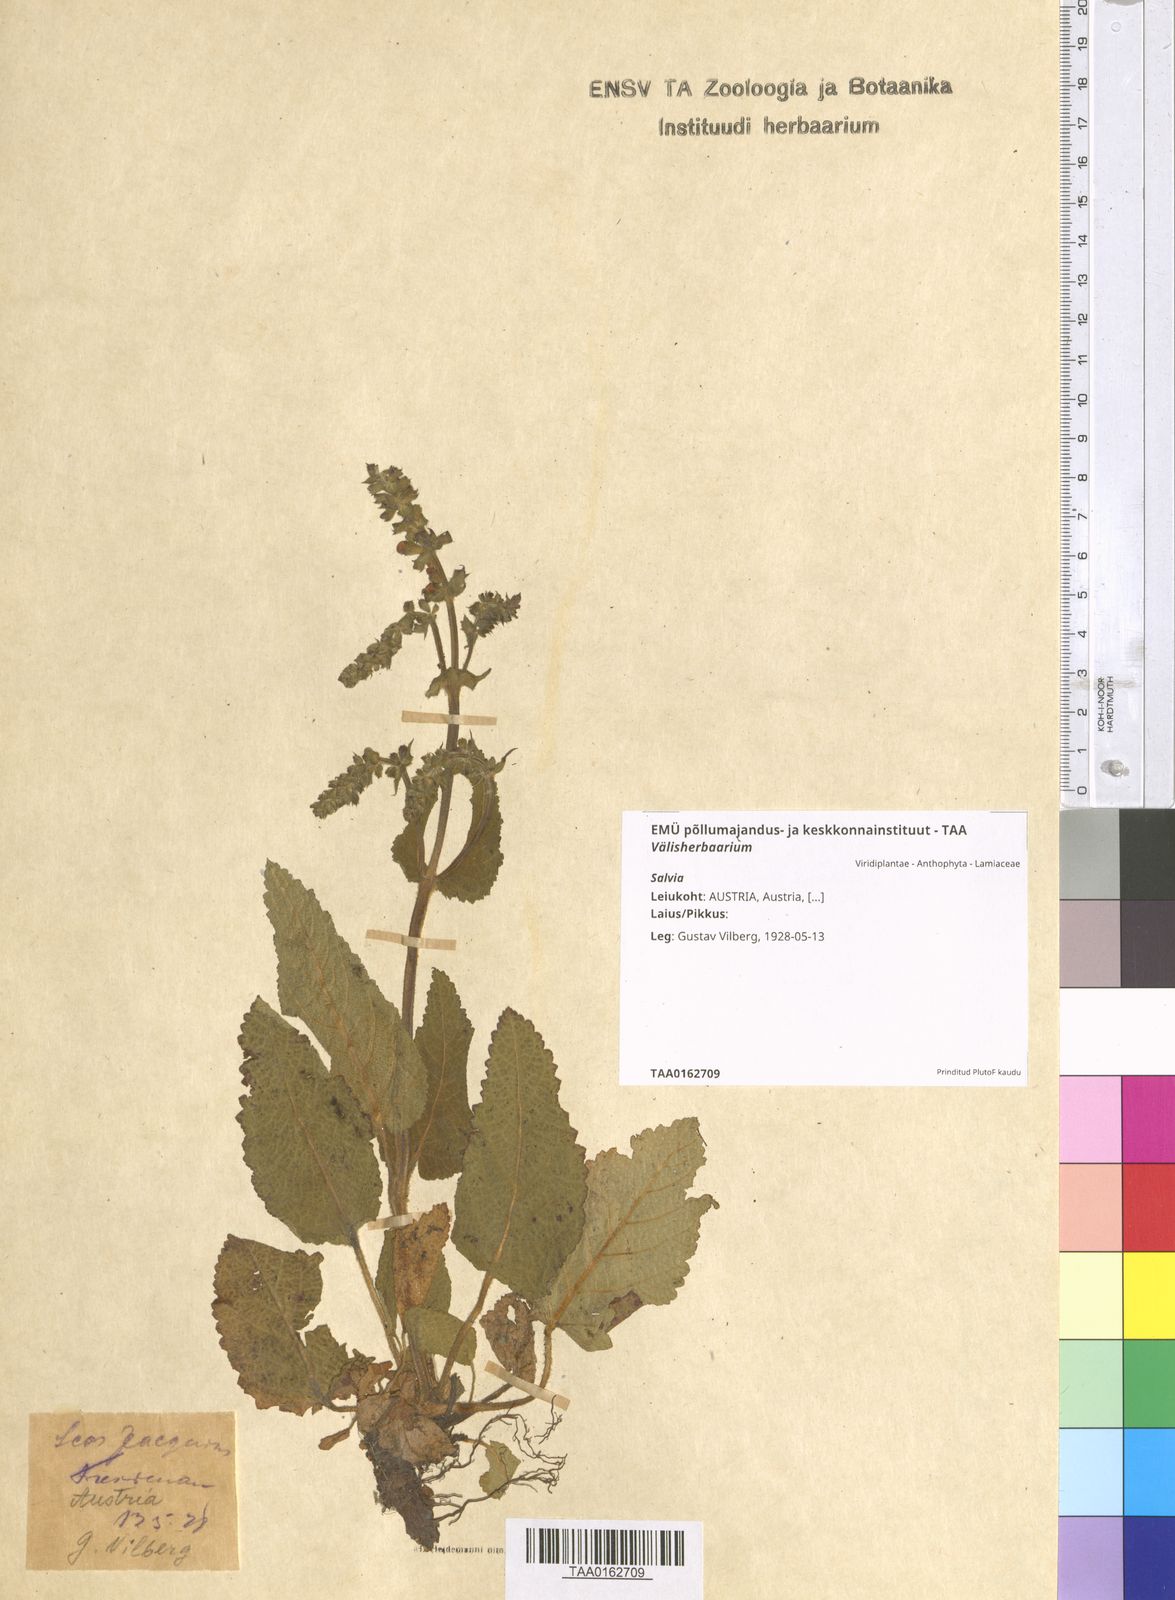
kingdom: Plantae
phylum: Tracheophyta
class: Magnoliopsida
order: Lamiales
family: Lamiaceae
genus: Salvia
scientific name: Salvia
